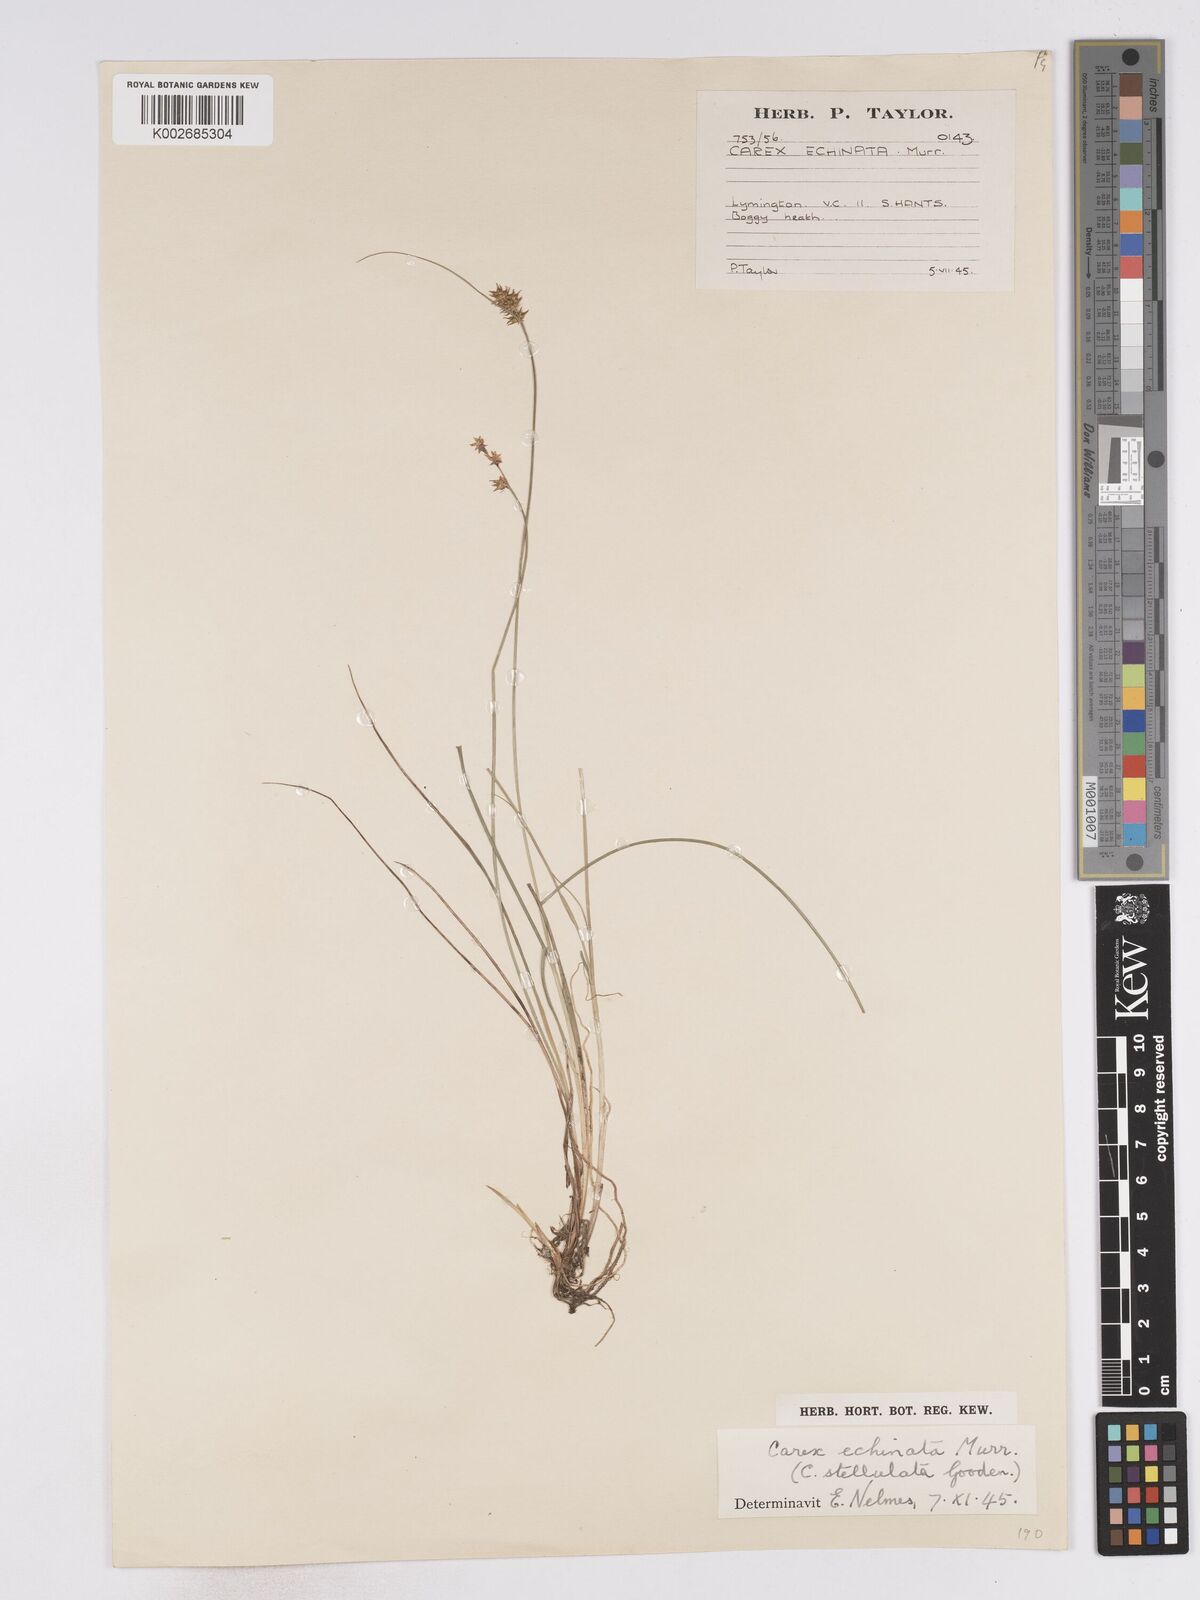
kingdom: Plantae
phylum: Tracheophyta
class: Liliopsida
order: Poales
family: Cyperaceae
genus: Carex
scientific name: Carex echinata
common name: Star sedge
